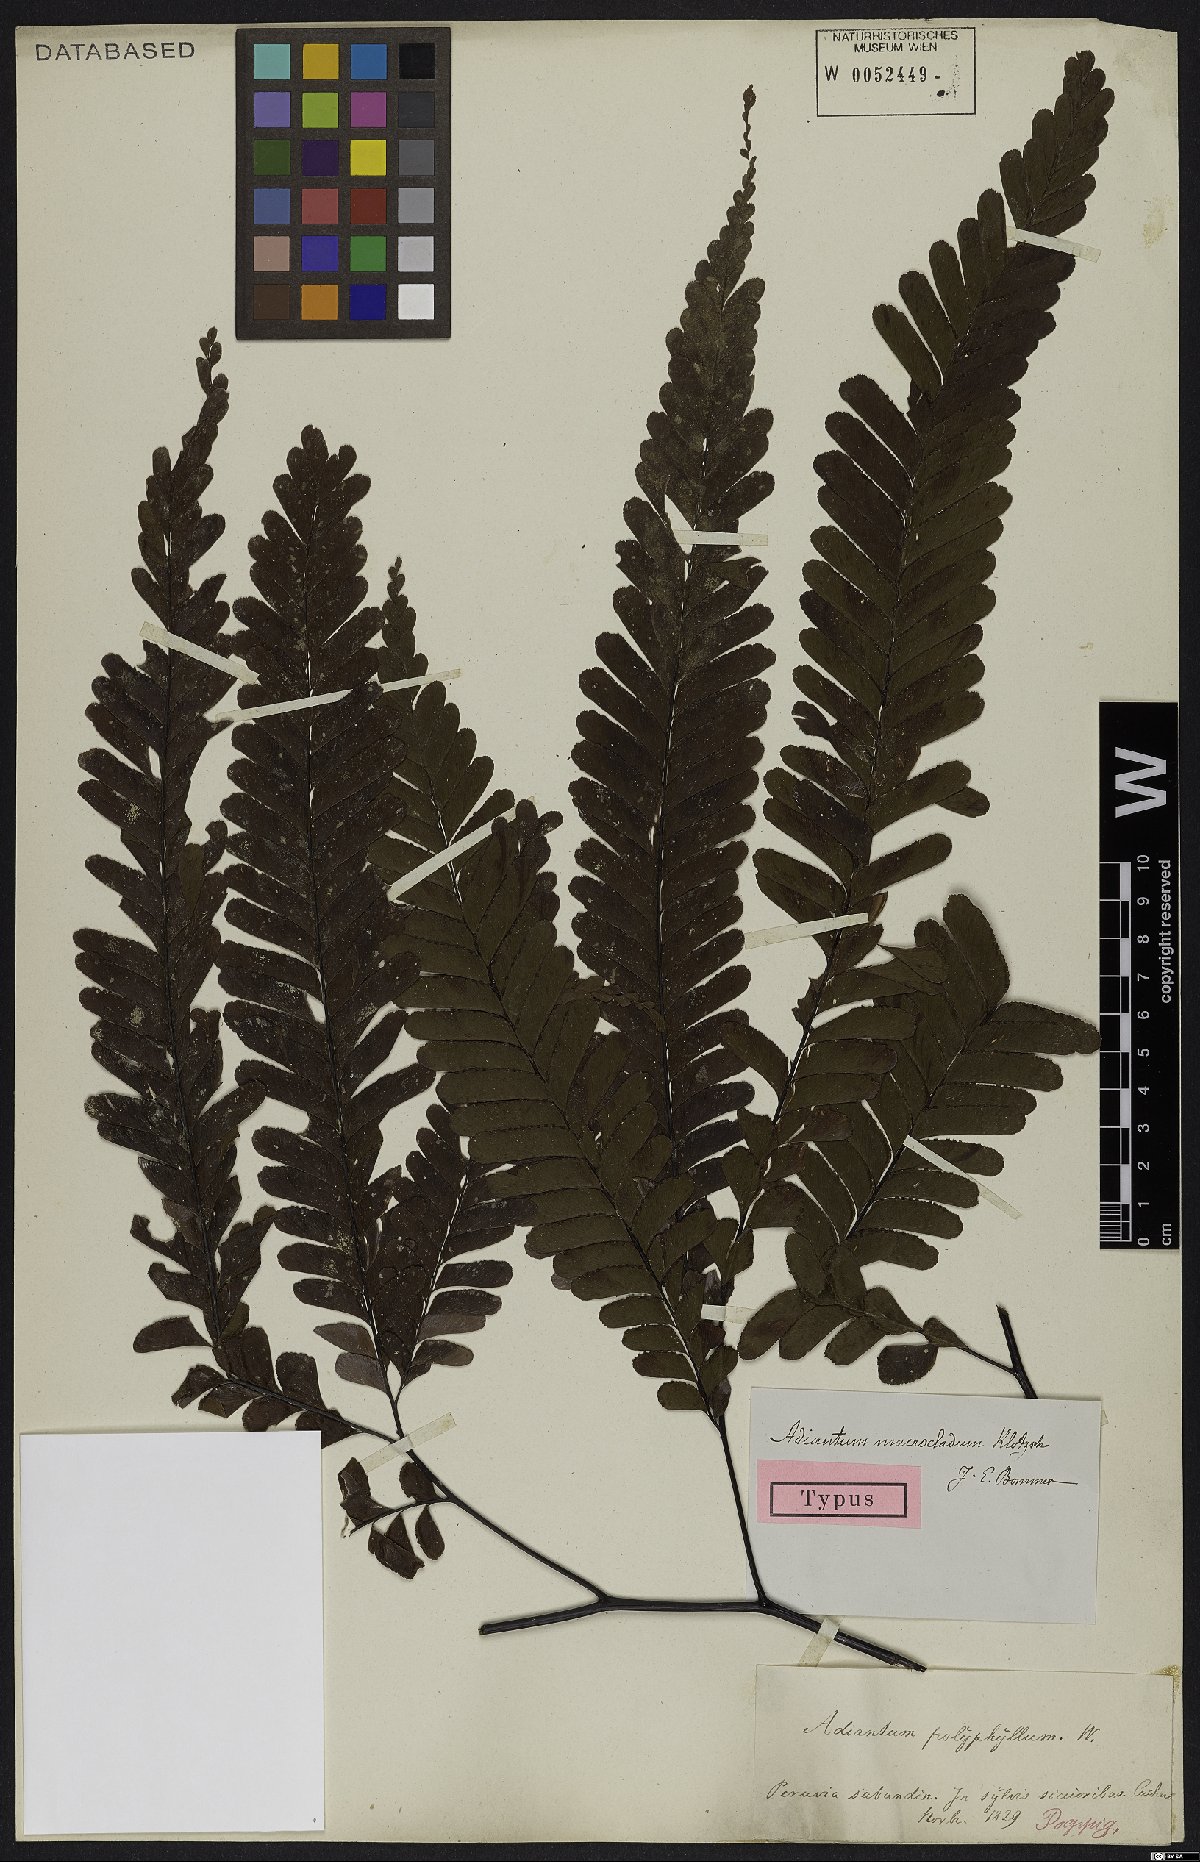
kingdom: Plantae
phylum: Tracheophyta
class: Polypodiopsida
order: Polypodiales
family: Pteridaceae
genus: Adiantum
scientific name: Adiantum macrocladum
